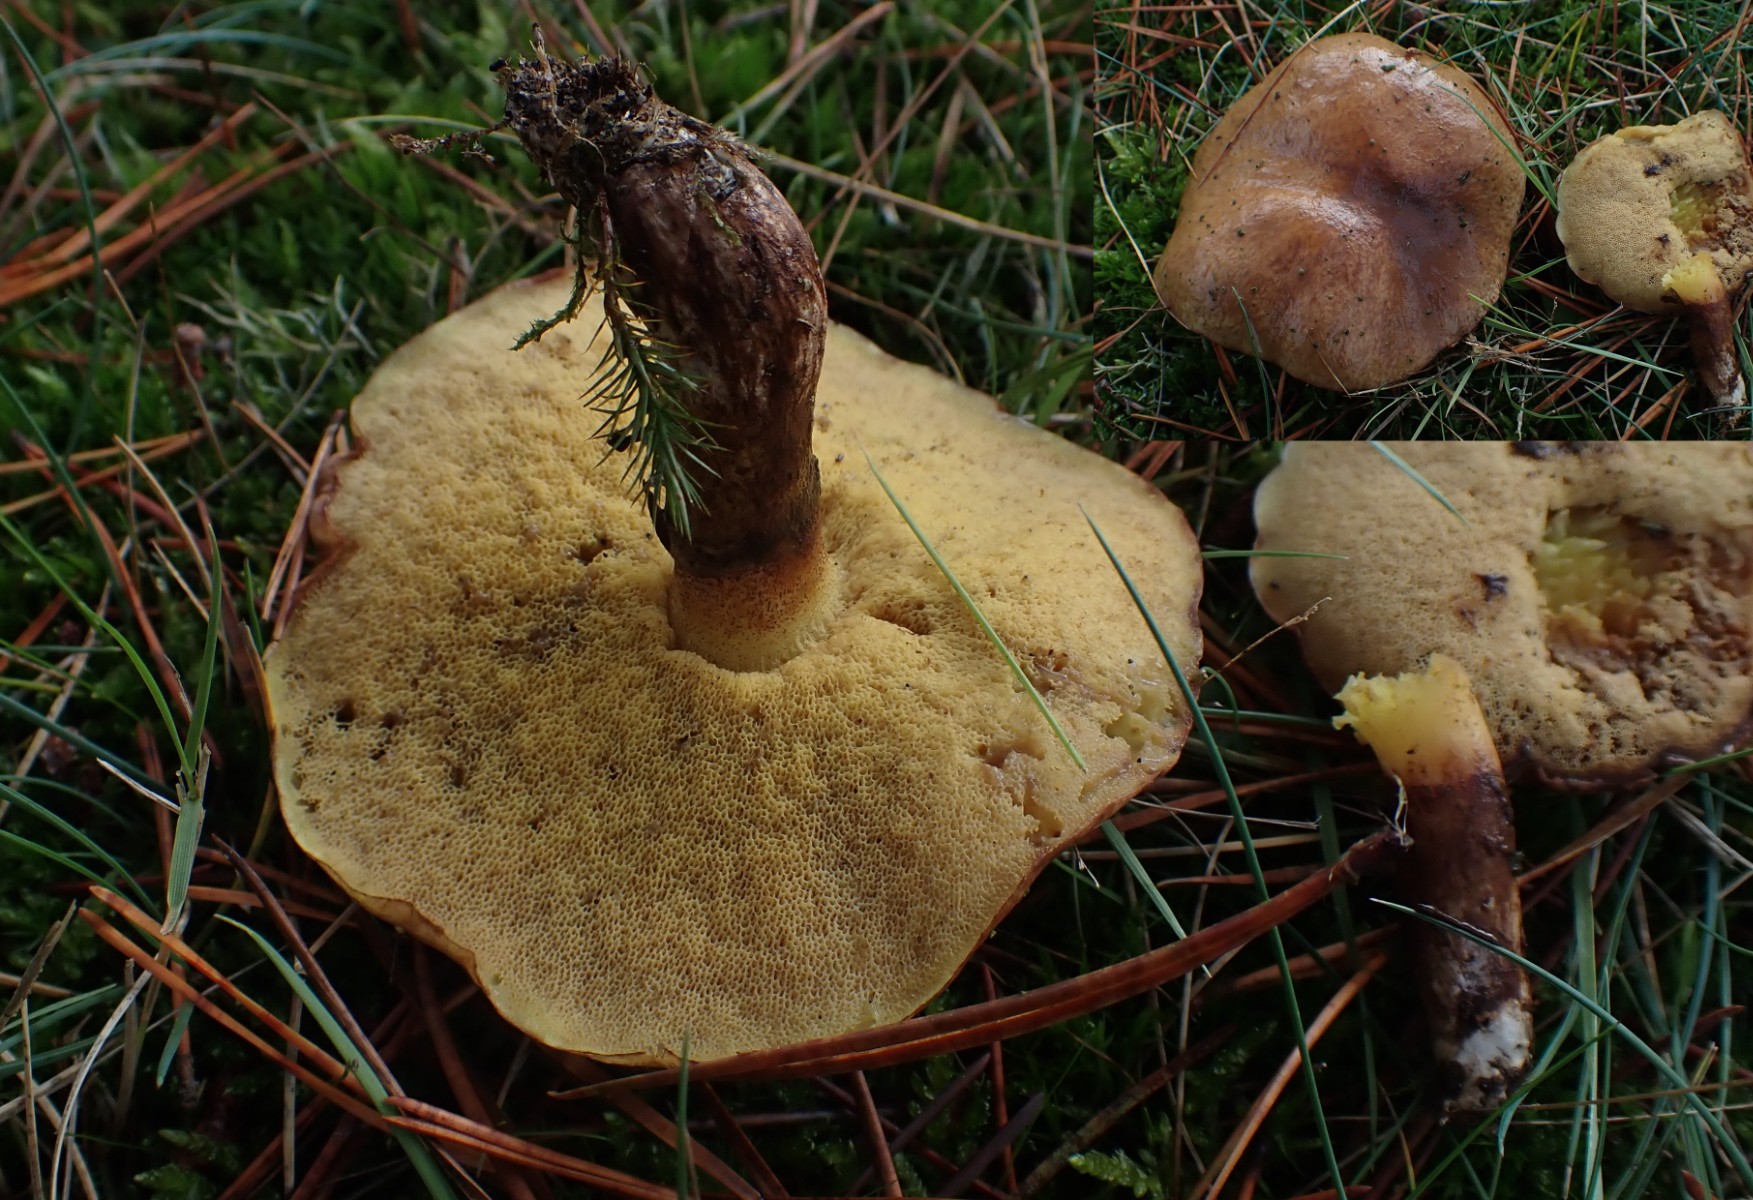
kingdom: Fungi
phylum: Basidiomycota
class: Agaricomycetes
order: Boletales
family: Suillaceae
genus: Suillus
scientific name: Suillus luteus
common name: brungul slimrørhat
